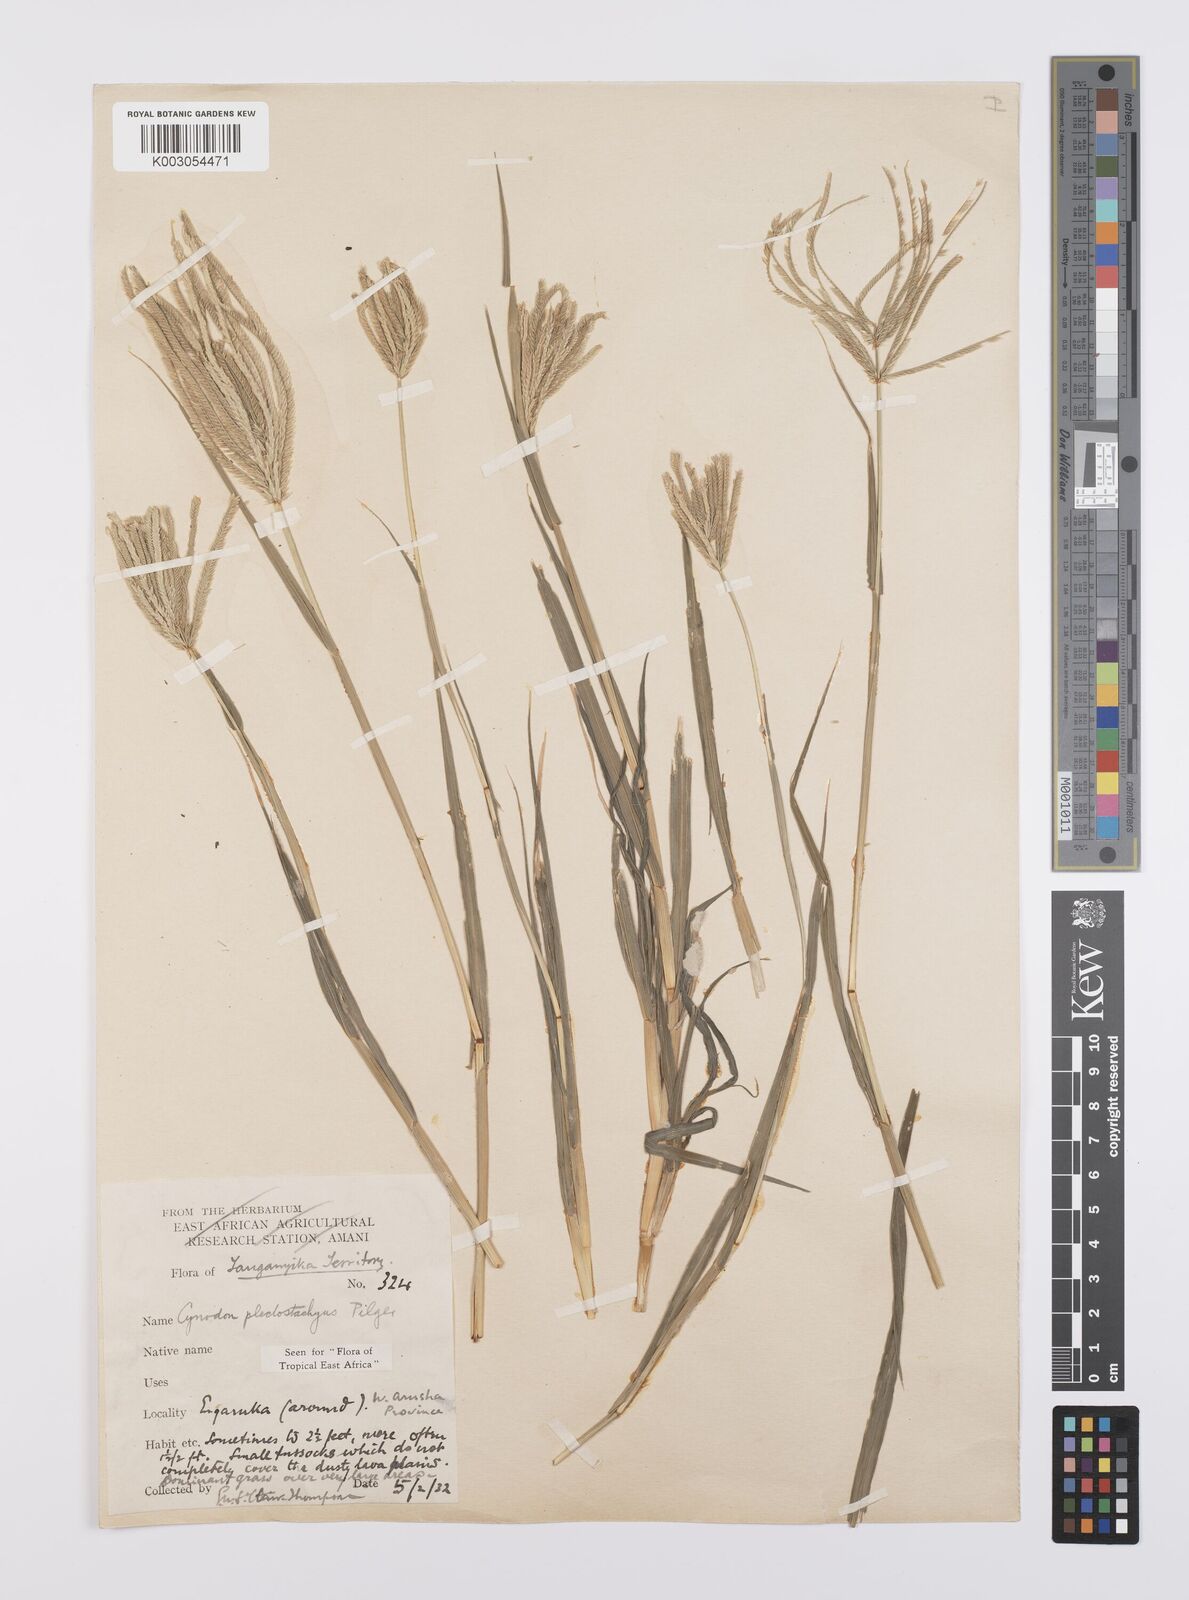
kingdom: Plantae
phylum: Tracheophyta
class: Liliopsida
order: Poales
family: Poaceae
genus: Cynodon
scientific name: Cynodon plectostachyus
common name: Stargrass
